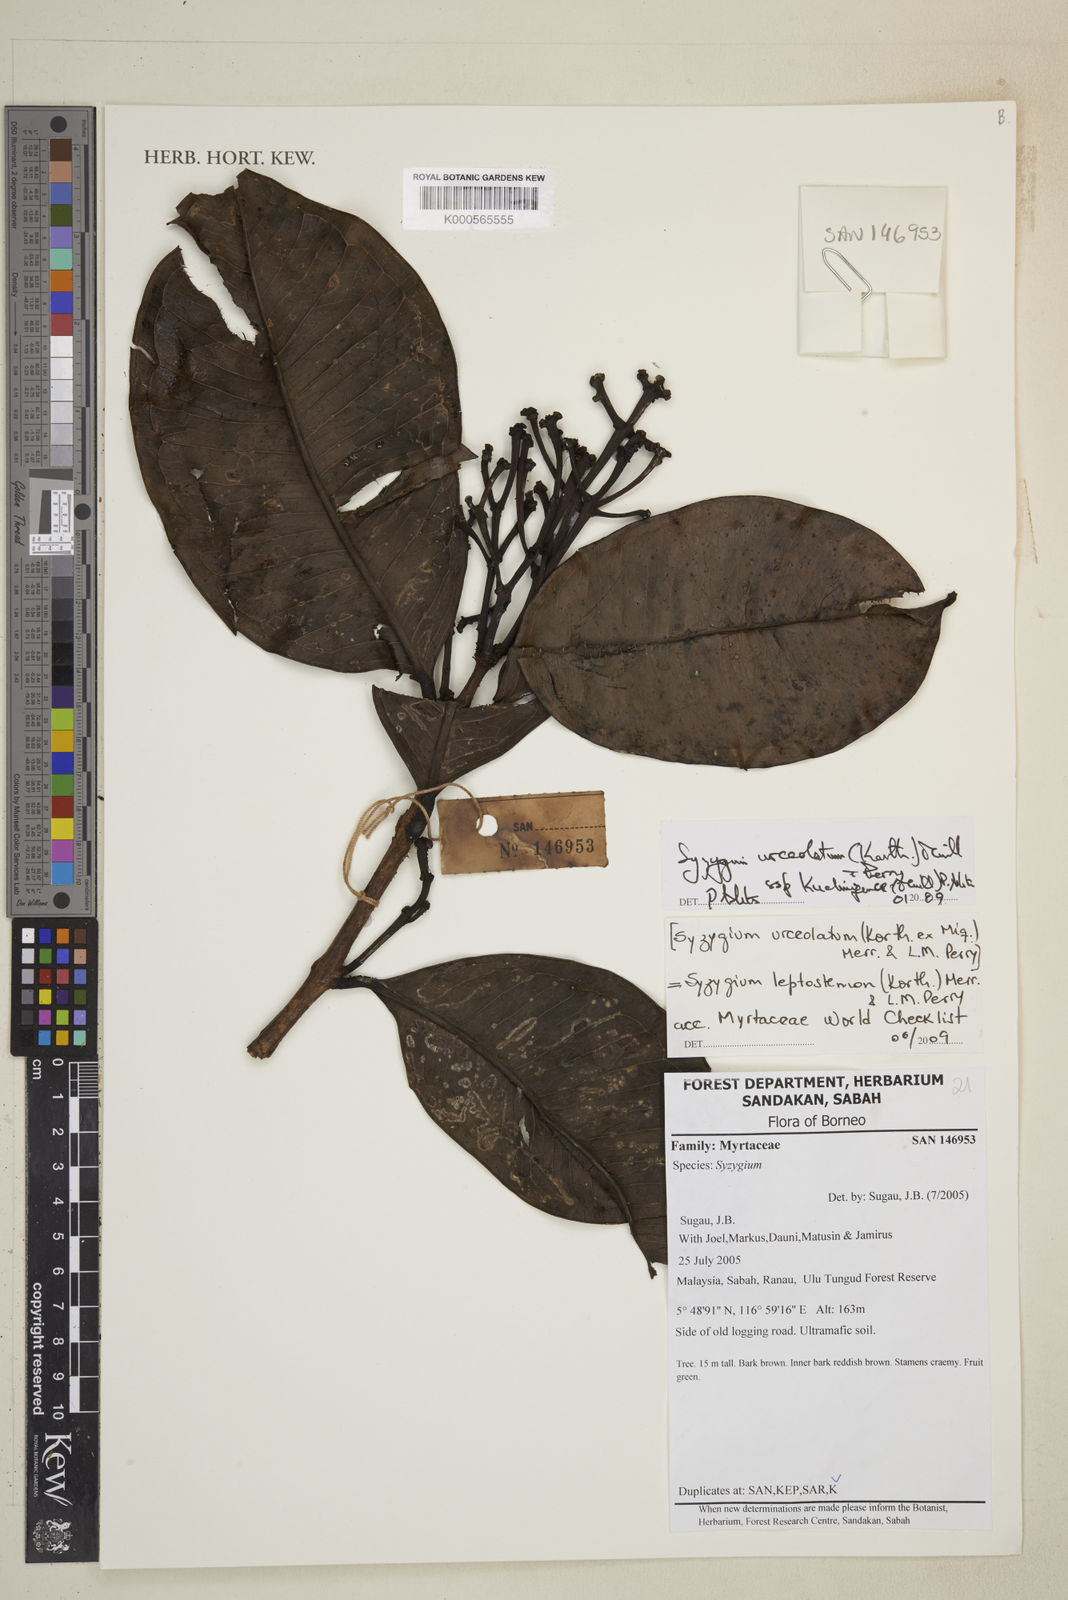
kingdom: Plantae
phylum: Tracheophyta
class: Magnoliopsida
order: Myrtales
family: Myrtaceae
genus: Syzygium
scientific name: Syzygium urceolatum
